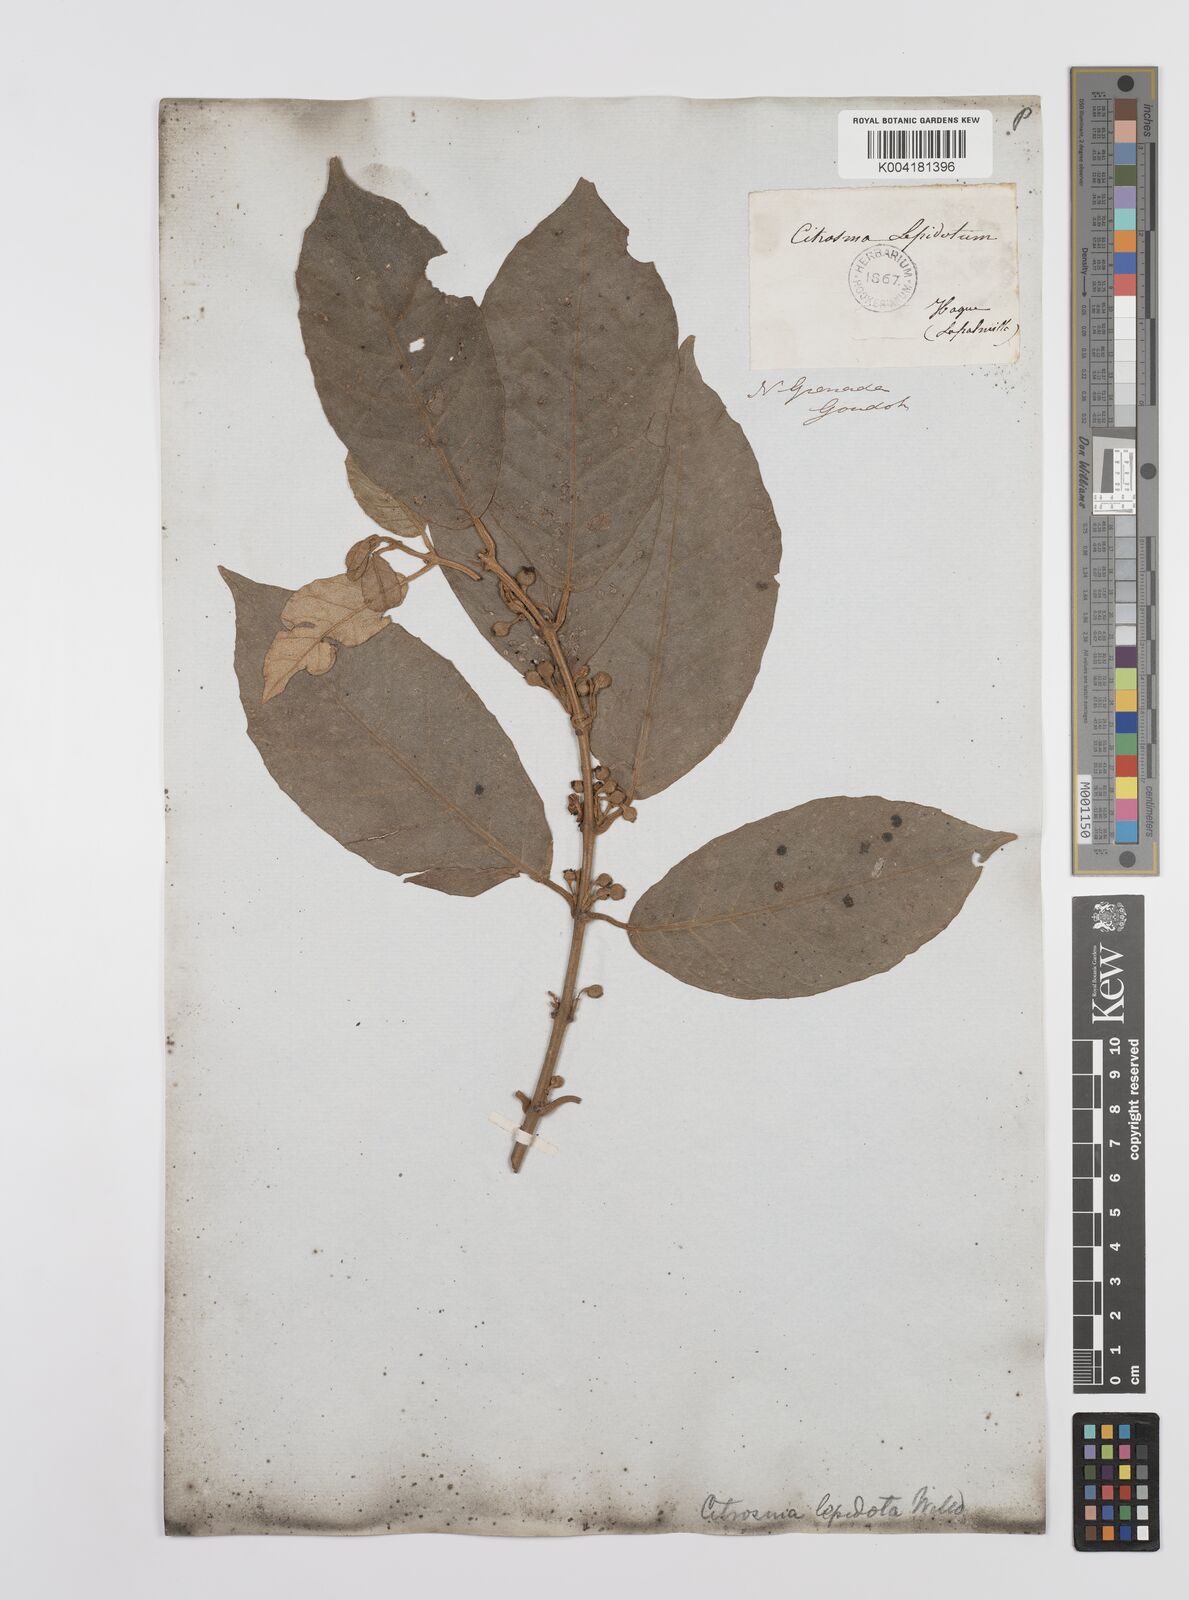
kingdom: Plantae
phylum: Tracheophyta
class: Magnoliopsida
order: Laurales
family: Siparunaceae
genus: Siparuna
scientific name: Siparuna lepidota
